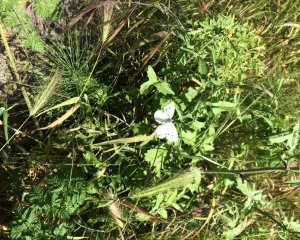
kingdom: Animalia
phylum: Arthropoda
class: Insecta
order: Lepidoptera
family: Pieridae
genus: Pieris
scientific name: Pieris rapae
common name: Cabbage White
